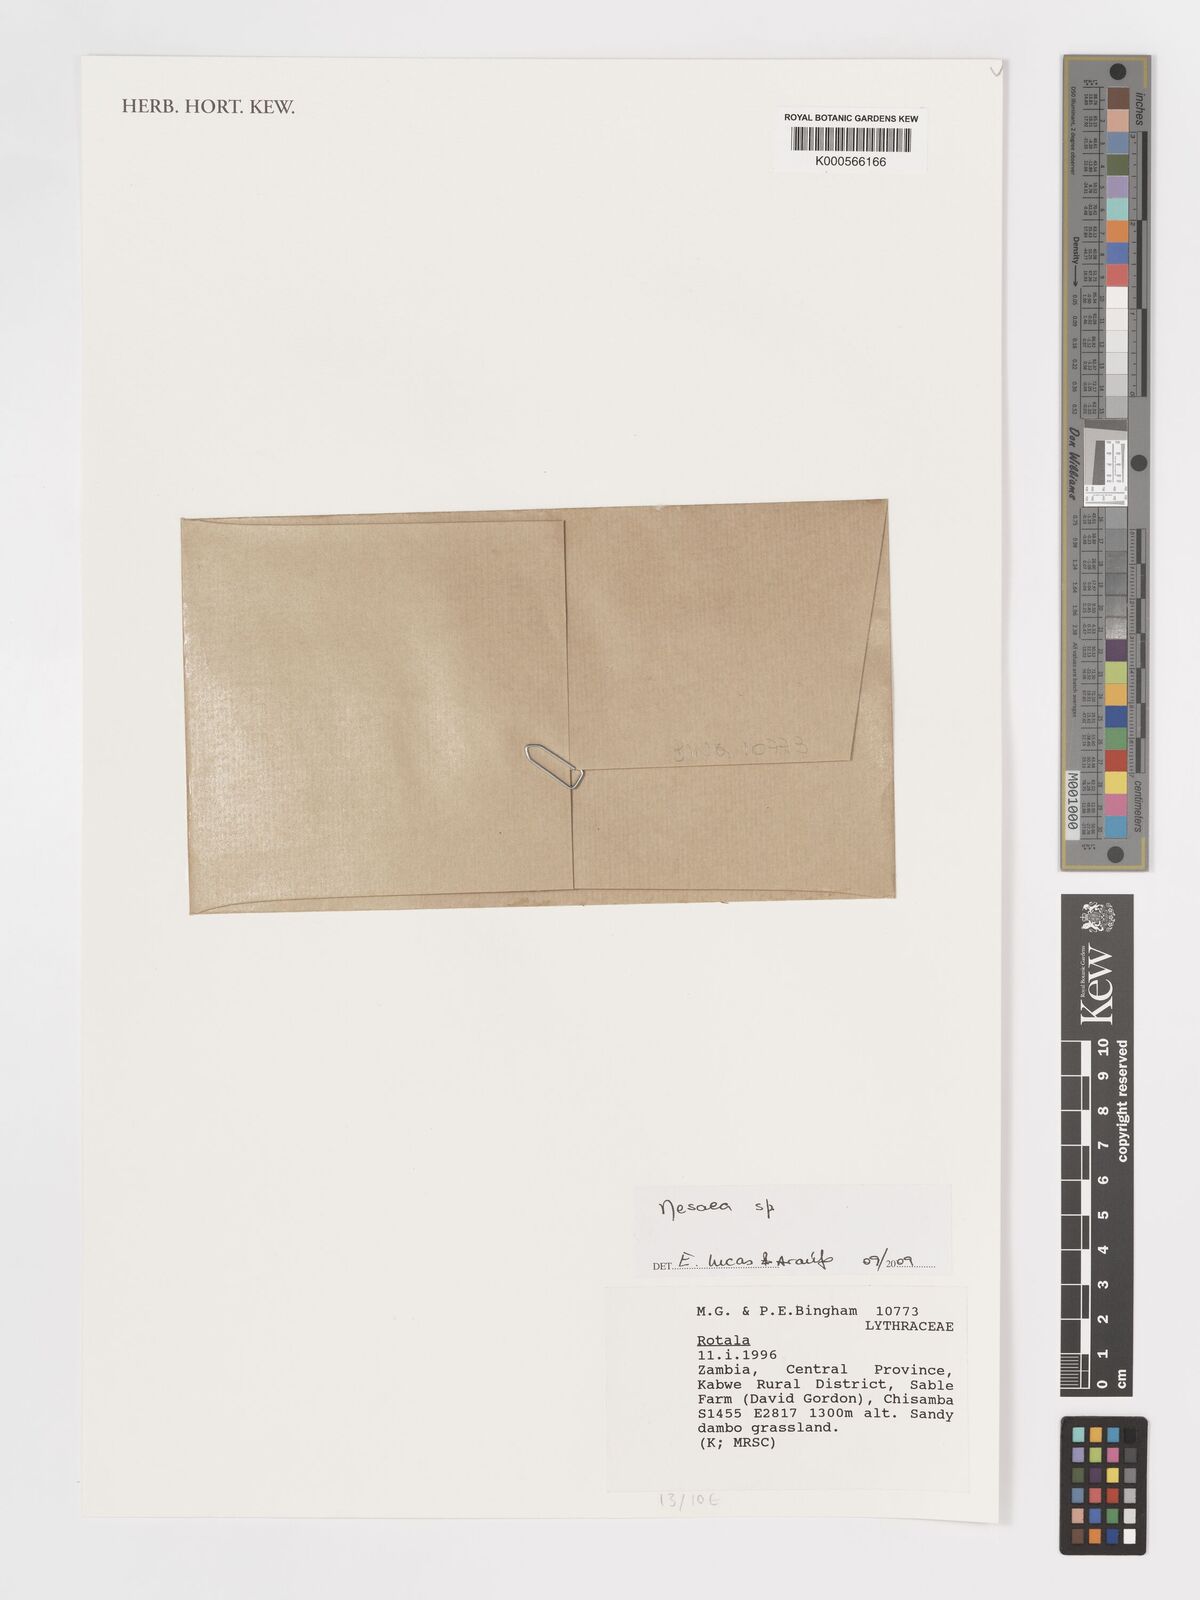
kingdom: Plantae
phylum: Tracheophyta
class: Magnoliopsida
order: Myrtales
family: Lythraceae
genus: Nesaea
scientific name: Nesaea
